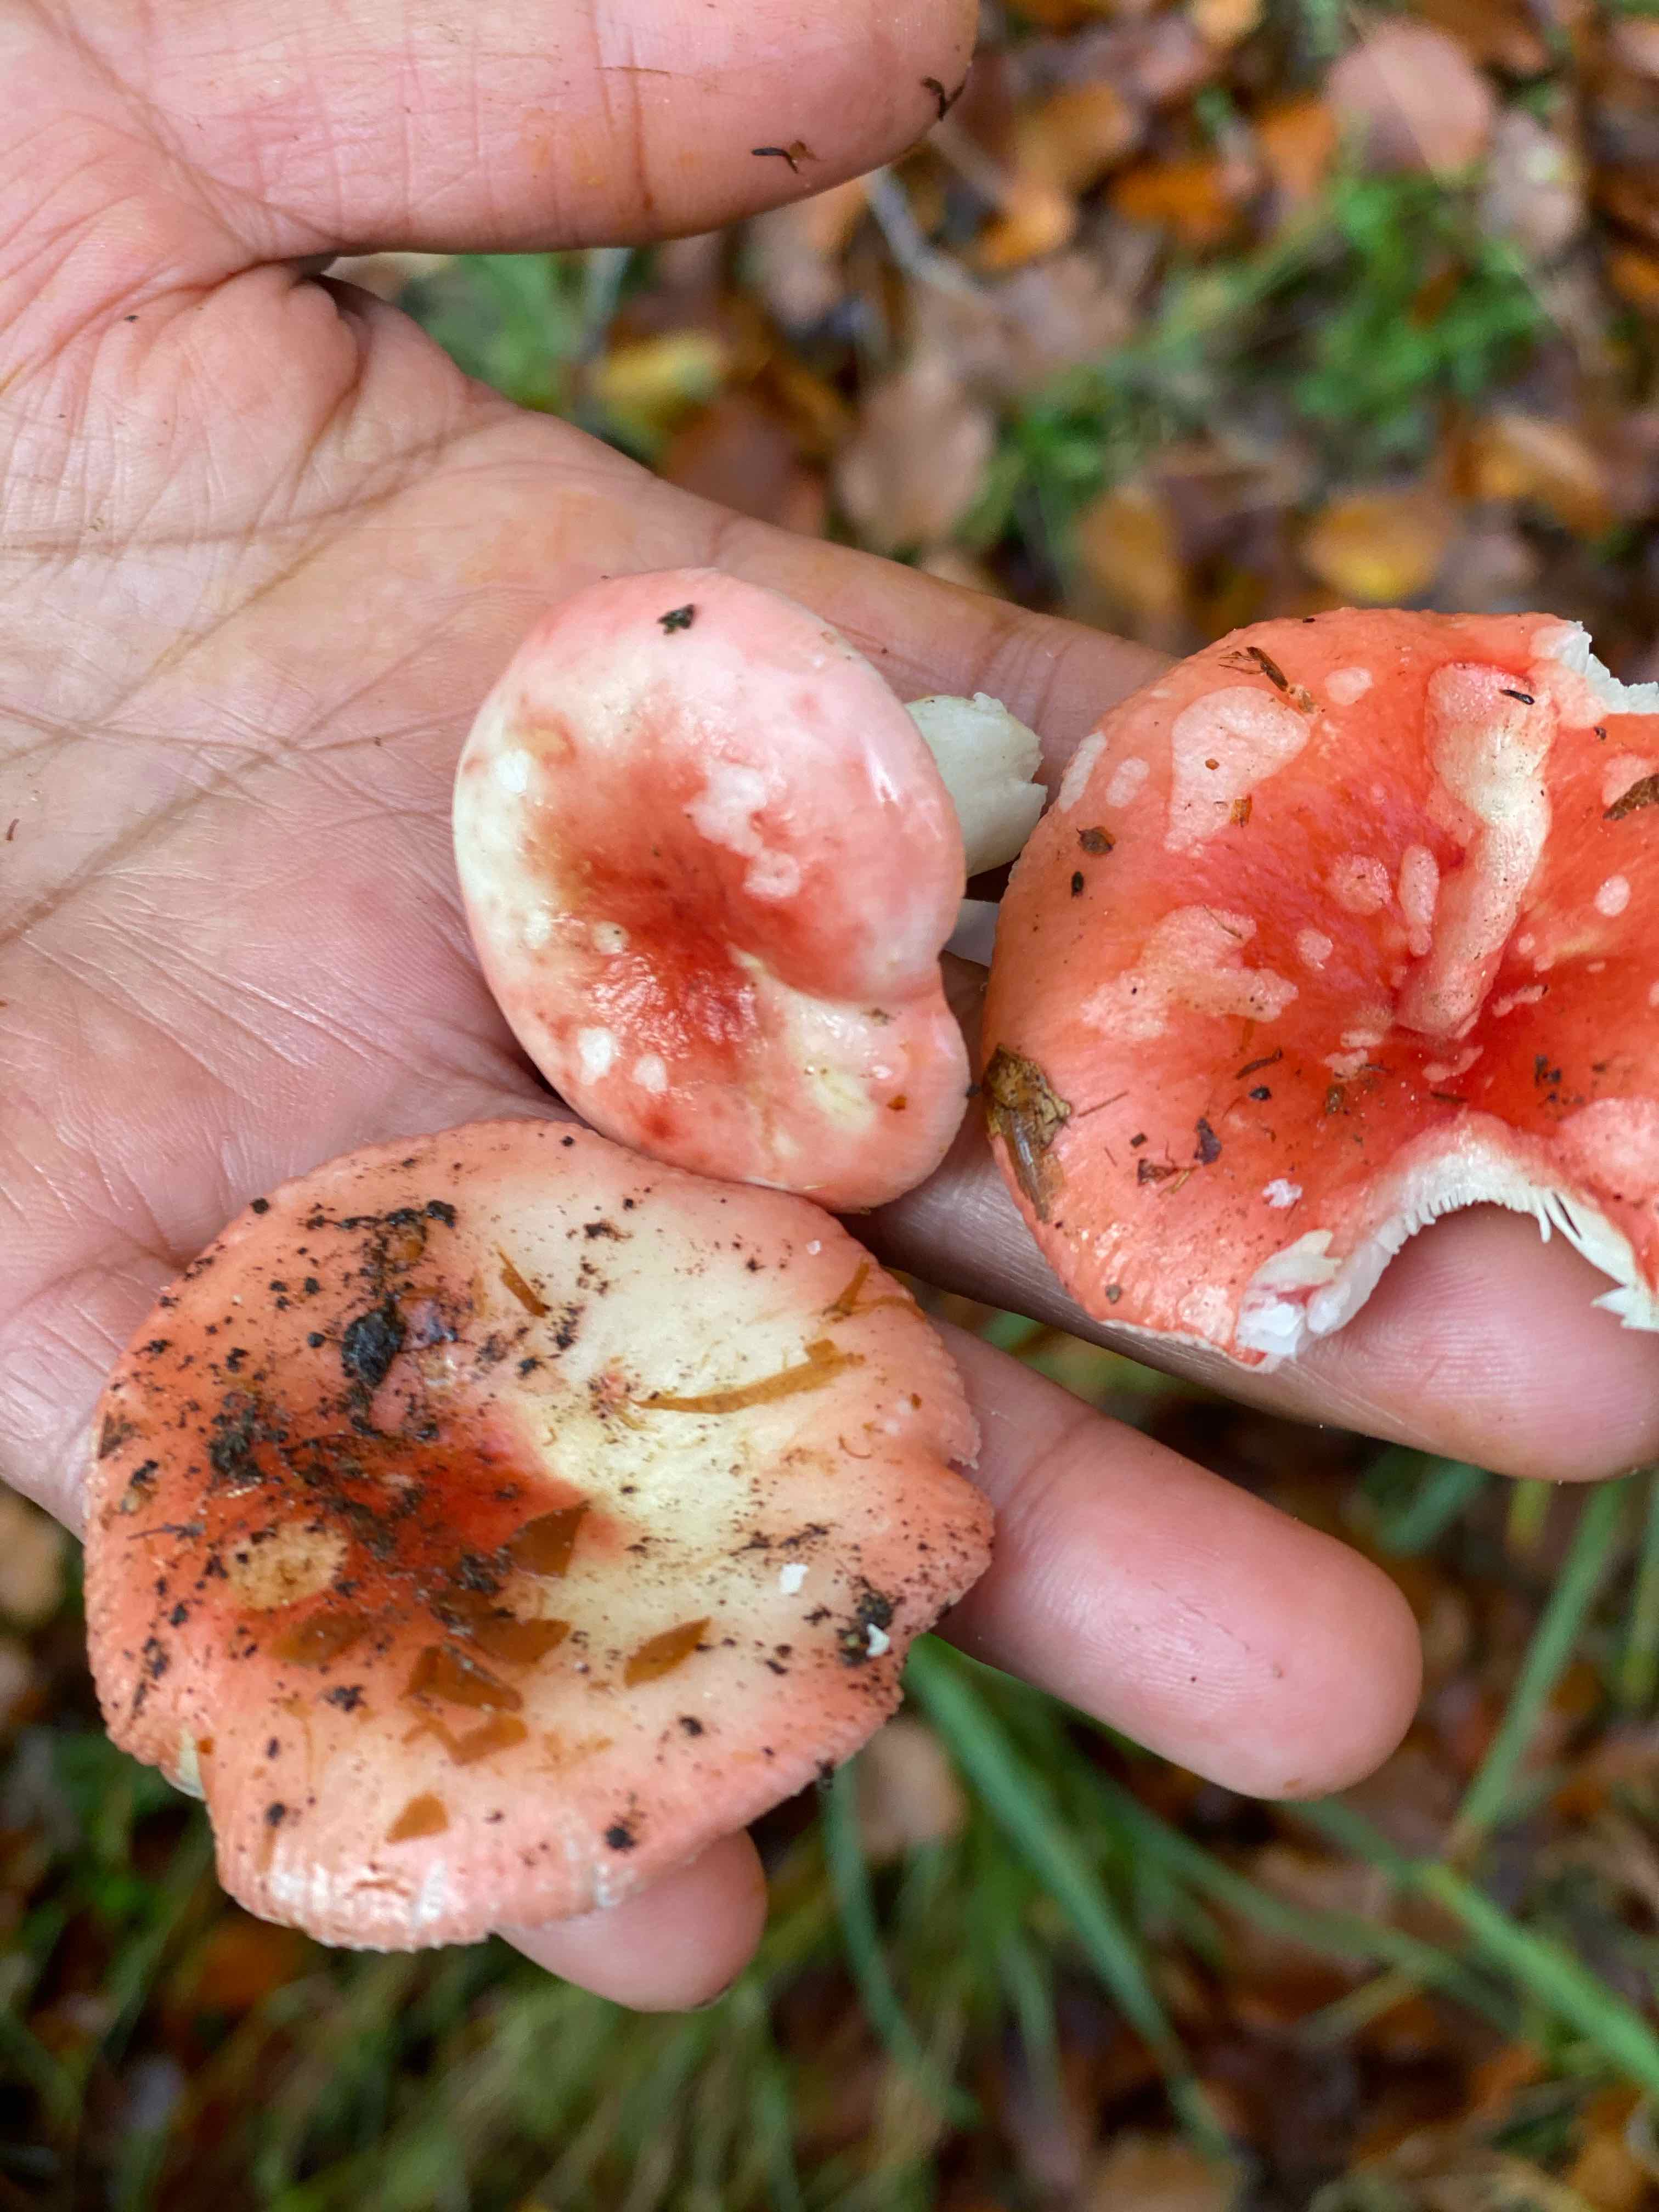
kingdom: Fungi
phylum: Basidiomycota
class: Agaricomycetes
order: Russulales
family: Russulaceae
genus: Russula
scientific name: Russula nobilis
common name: lille gift-skørhat
